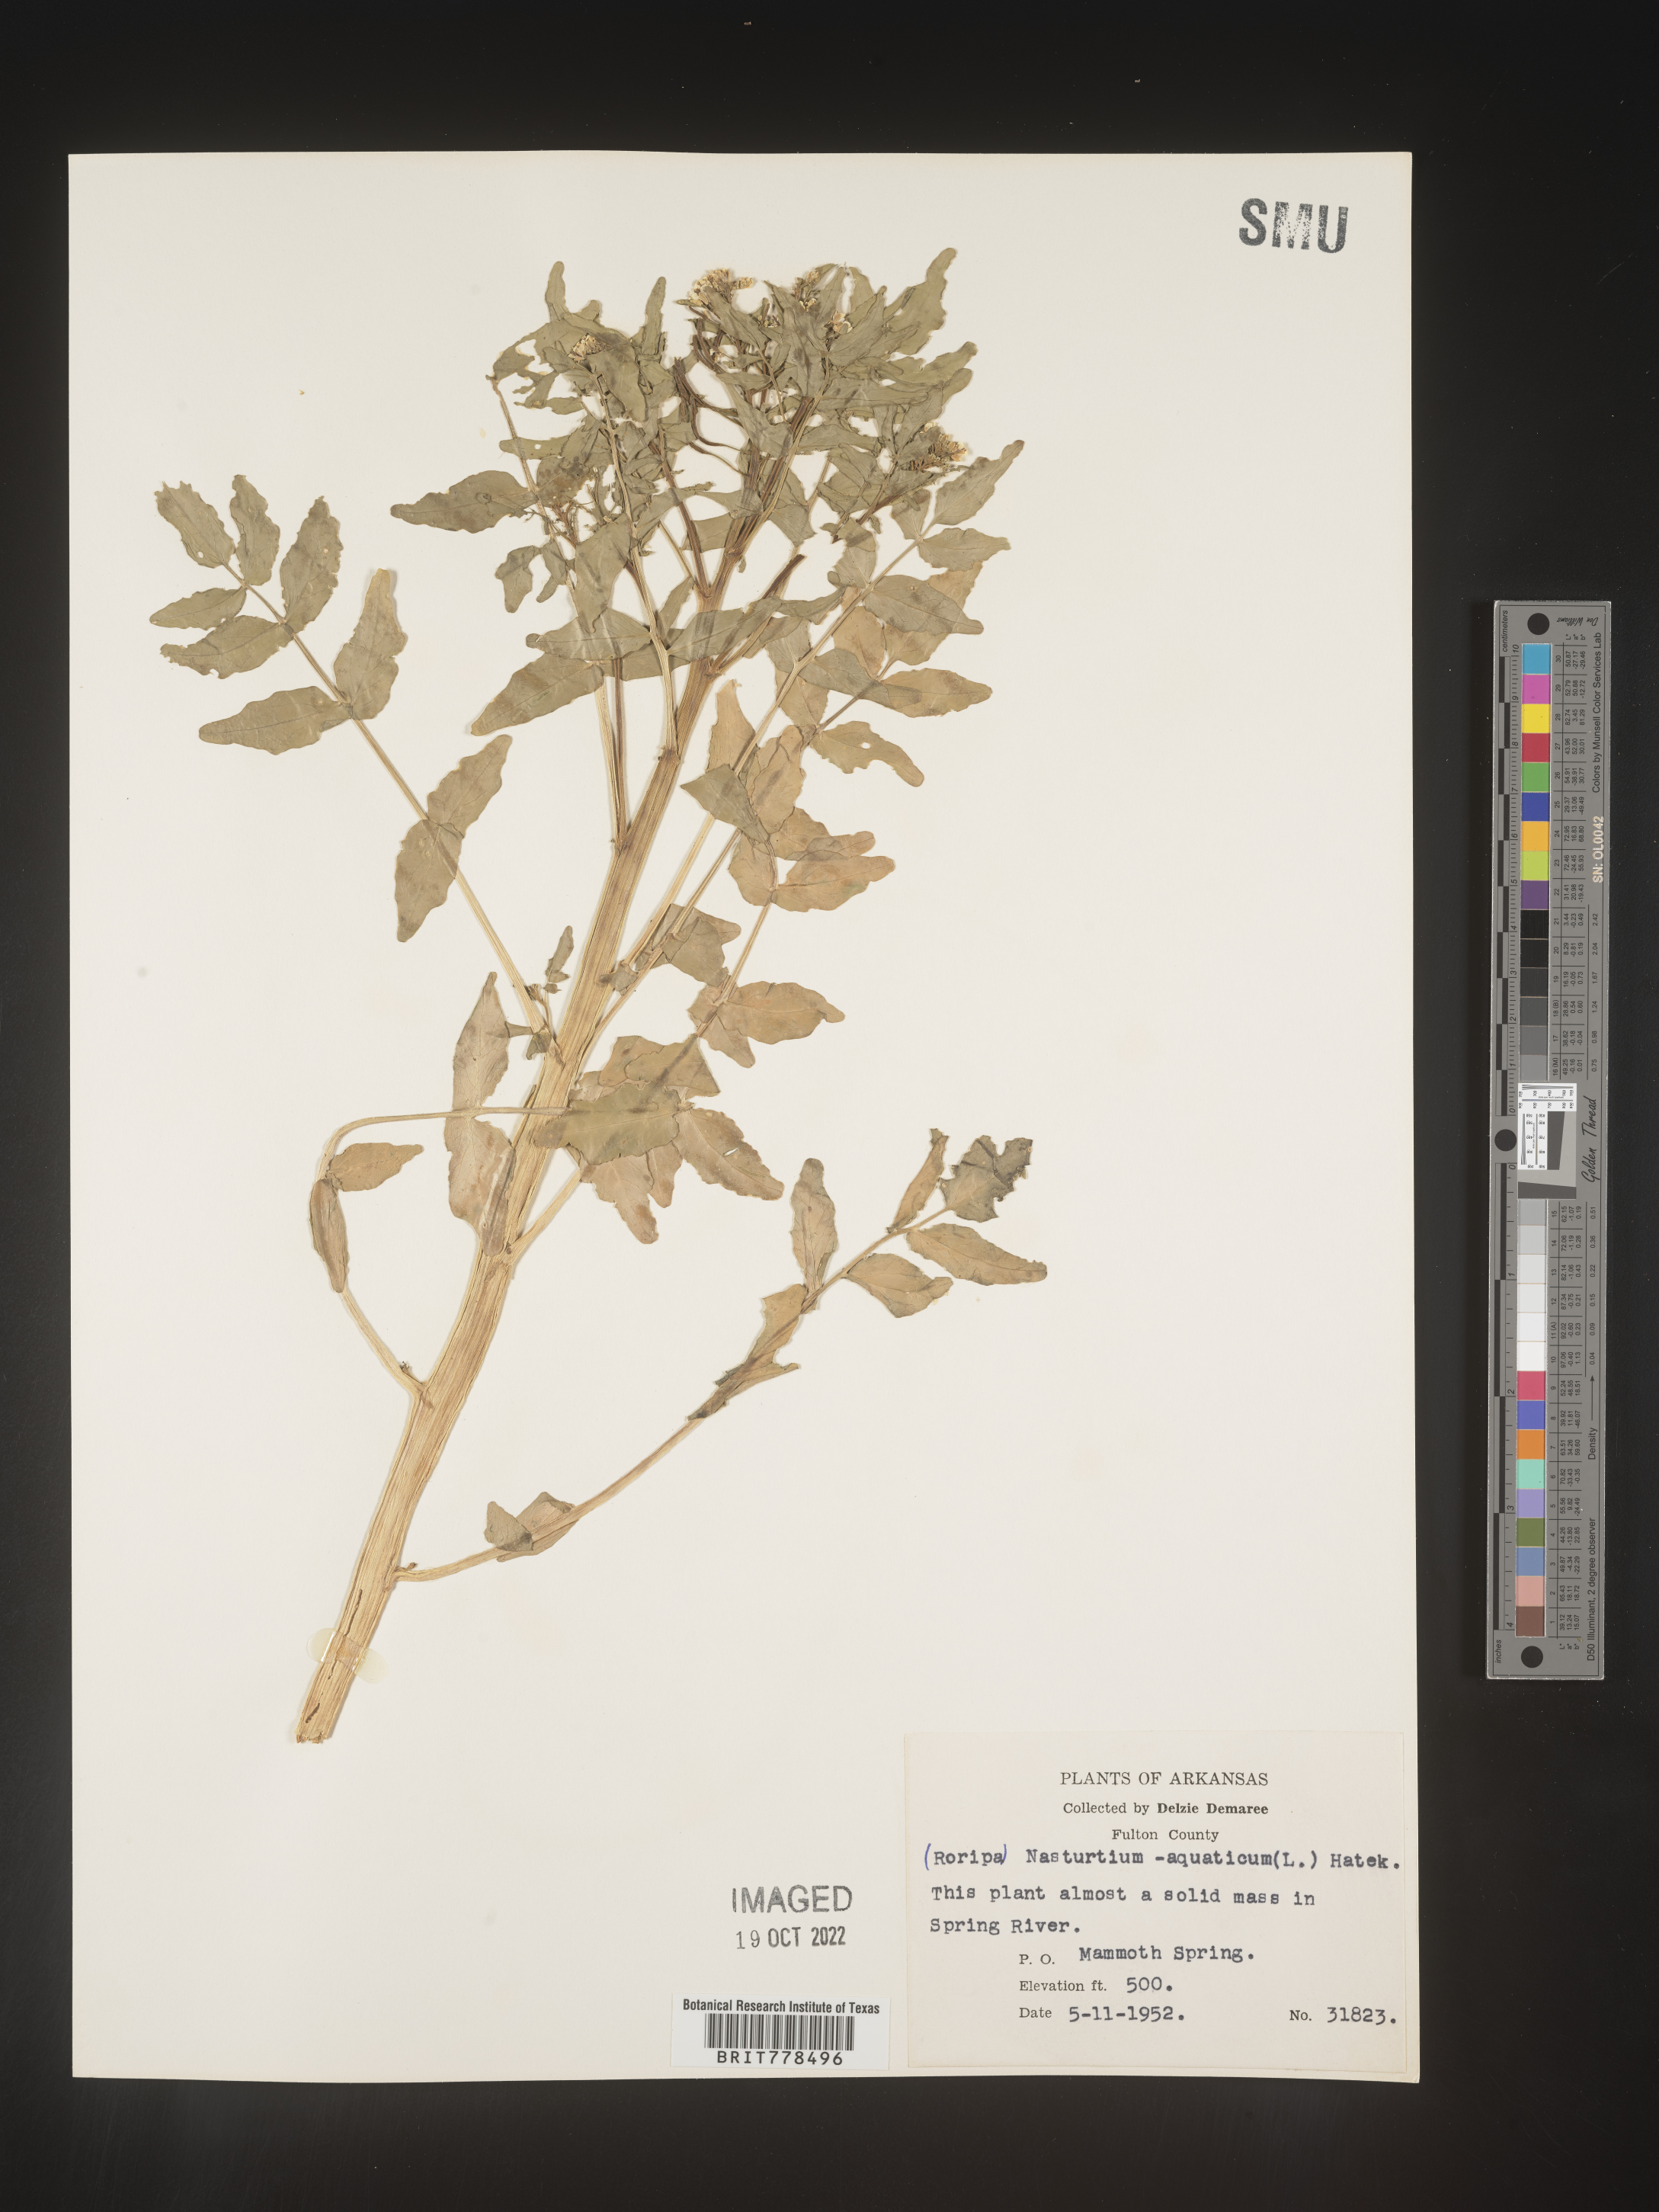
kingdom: Plantae
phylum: Tracheophyta
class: Magnoliopsida
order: Brassicales
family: Brassicaceae
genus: Nasturtium
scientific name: Nasturtium officinale
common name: Watercress
